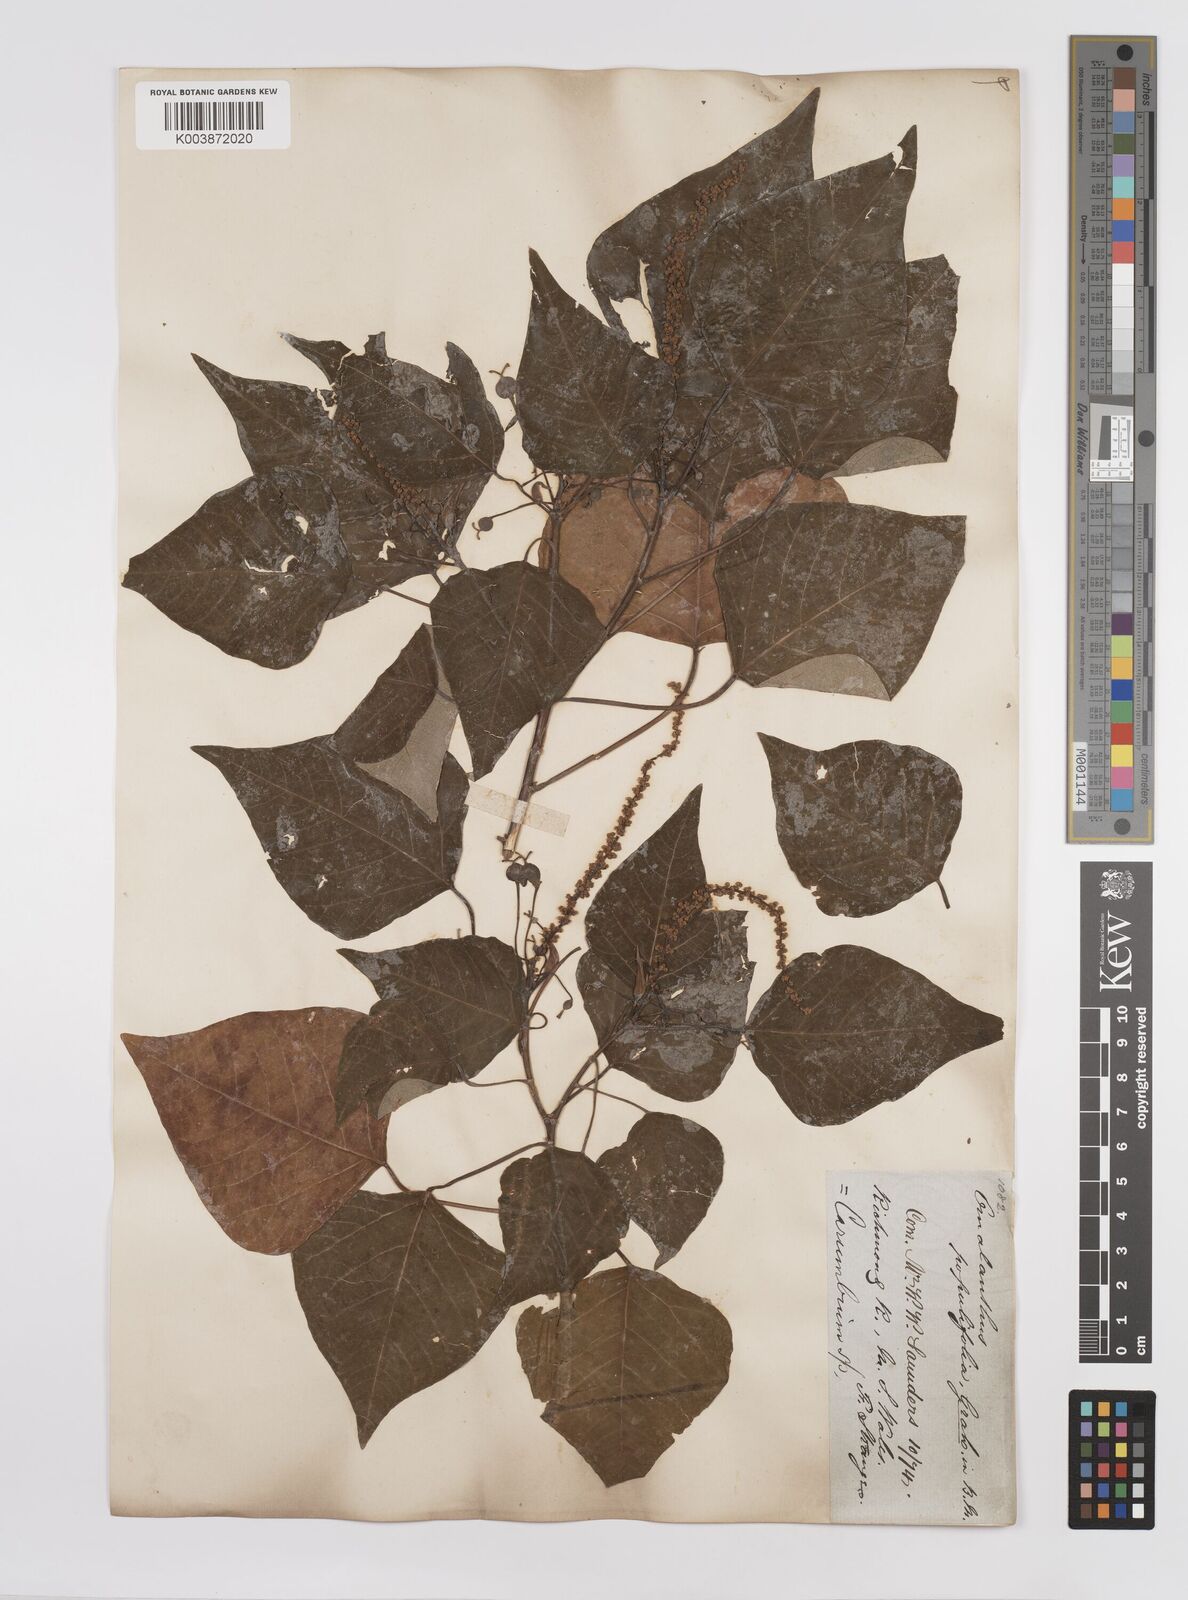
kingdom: Plantae
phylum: Tracheophyta
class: Magnoliopsida
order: Malpighiales
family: Euphorbiaceae
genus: Homalanthus
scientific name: Homalanthus populifolius
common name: Queensland poplar
